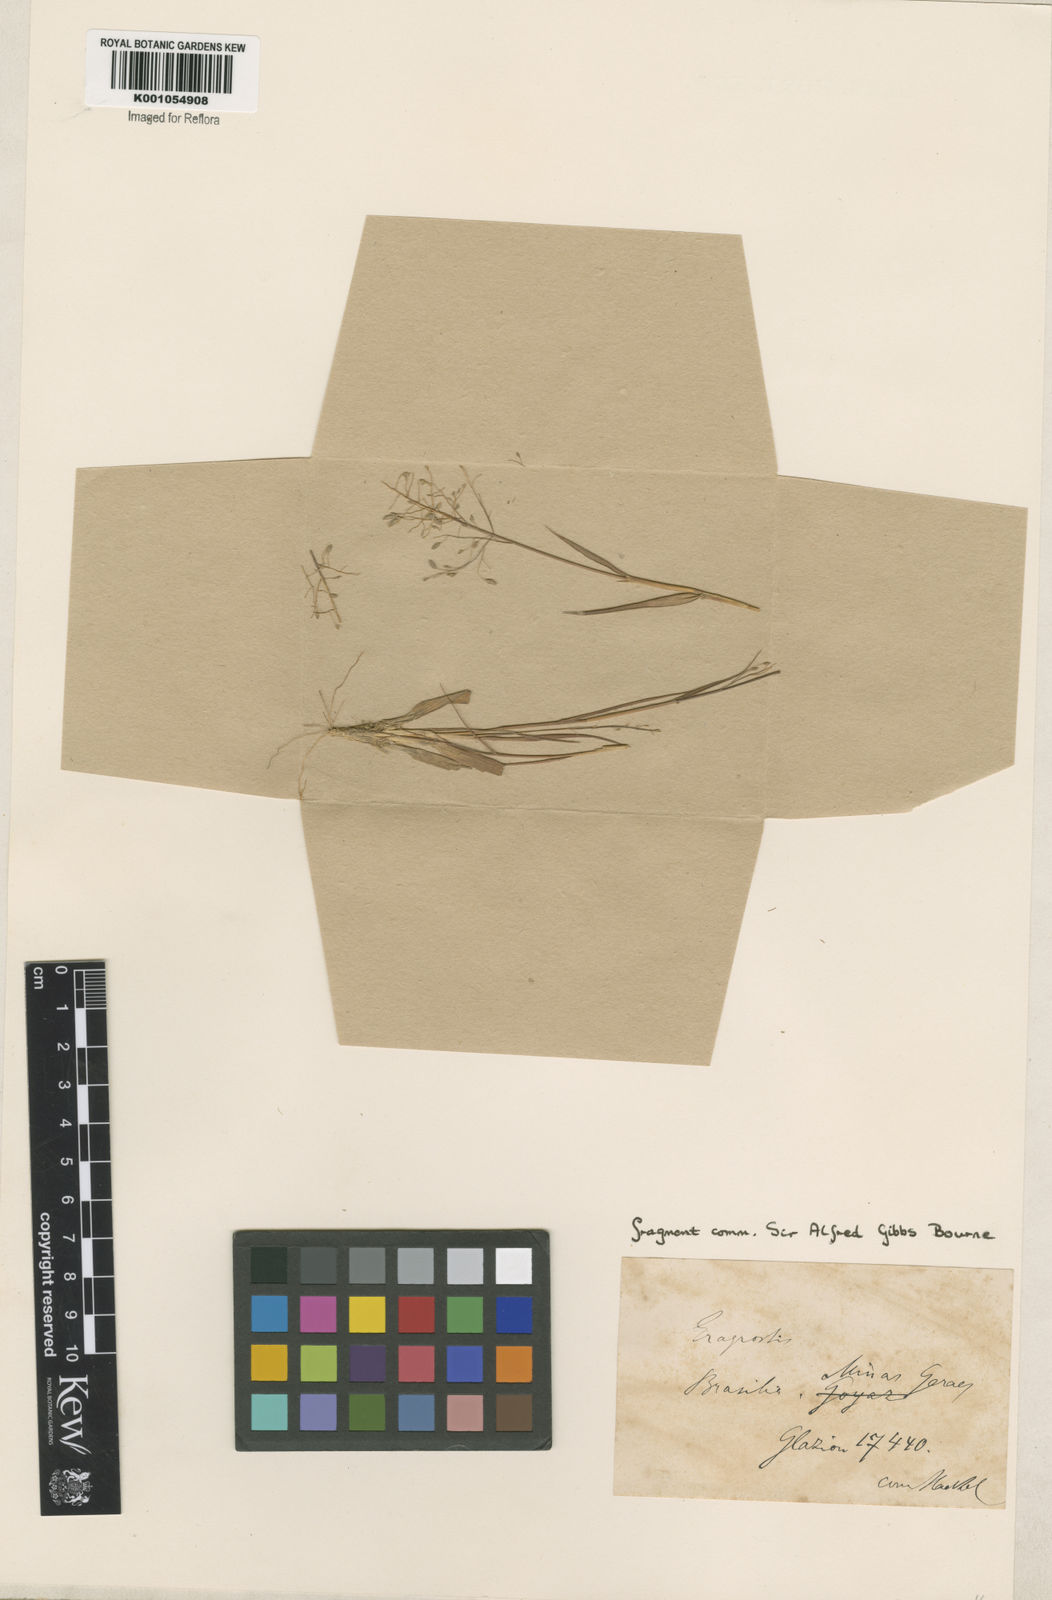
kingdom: Plantae
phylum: Tracheophyta
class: Liliopsida
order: Poales
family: Poaceae
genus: Eragrostis
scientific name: Eragrostis articulata
